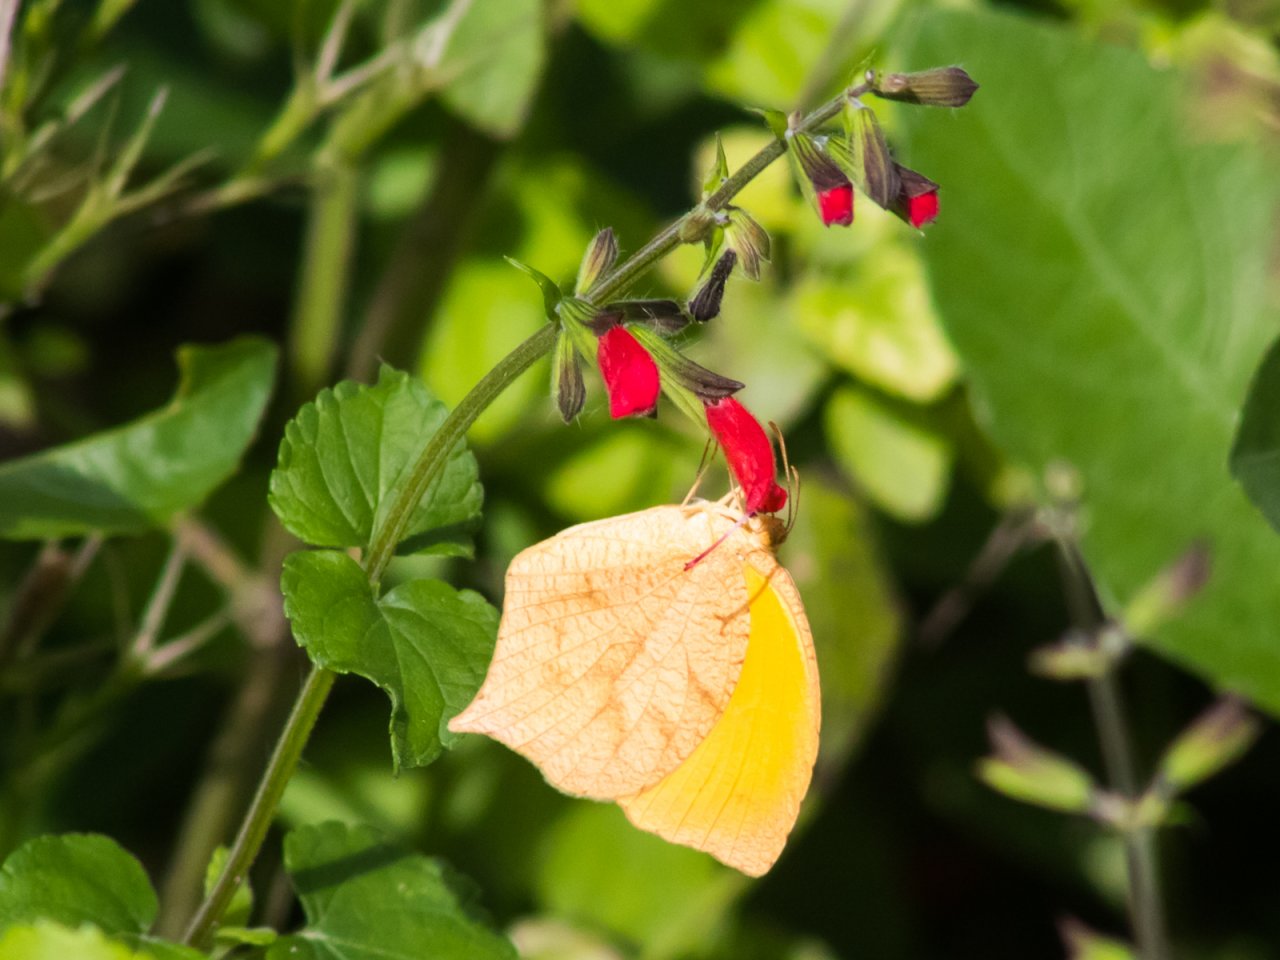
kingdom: Animalia
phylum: Arthropoda
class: Insecta
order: Lepidoptera
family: Pieridae
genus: Pyrisitia
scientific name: Pyrisitia proterpia
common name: Tailed Orange
